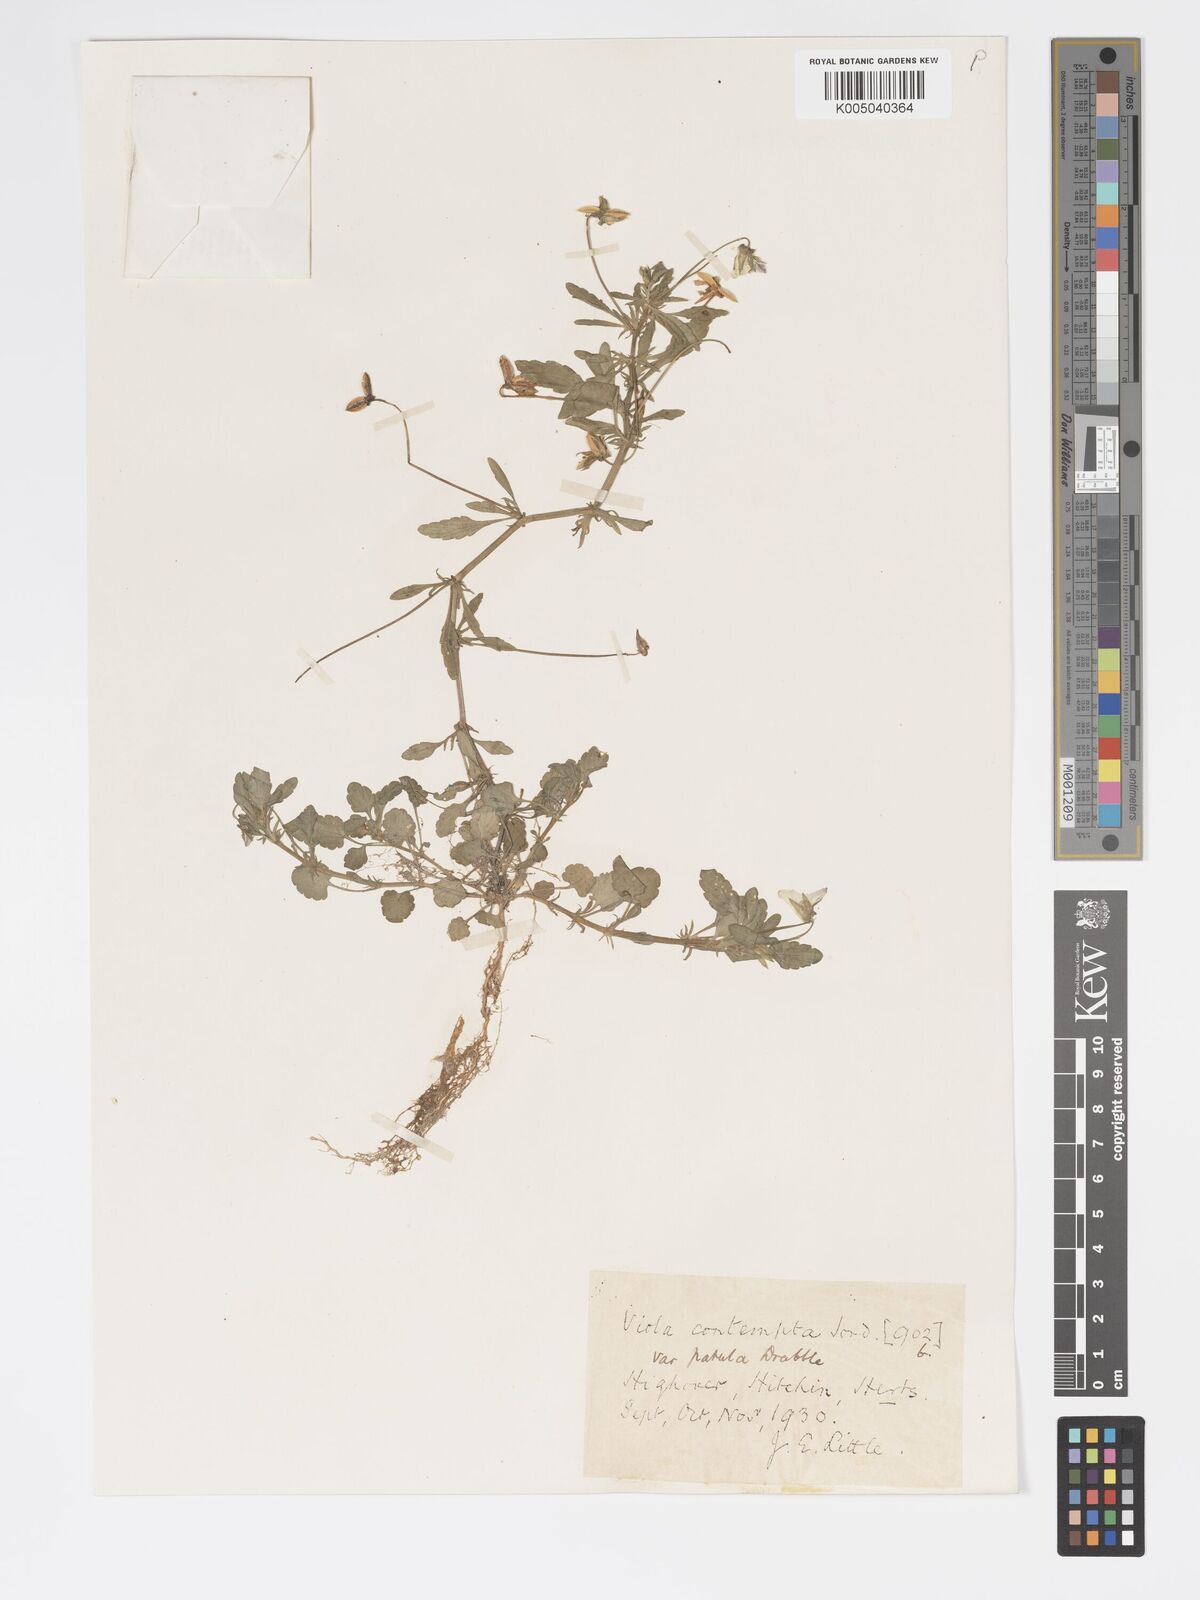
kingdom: Plantae
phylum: Tracheophyta
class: Magnoliopsida
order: Malpighiales
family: Violaceae
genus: Viola
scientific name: Viola arvensis
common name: Field pansy
